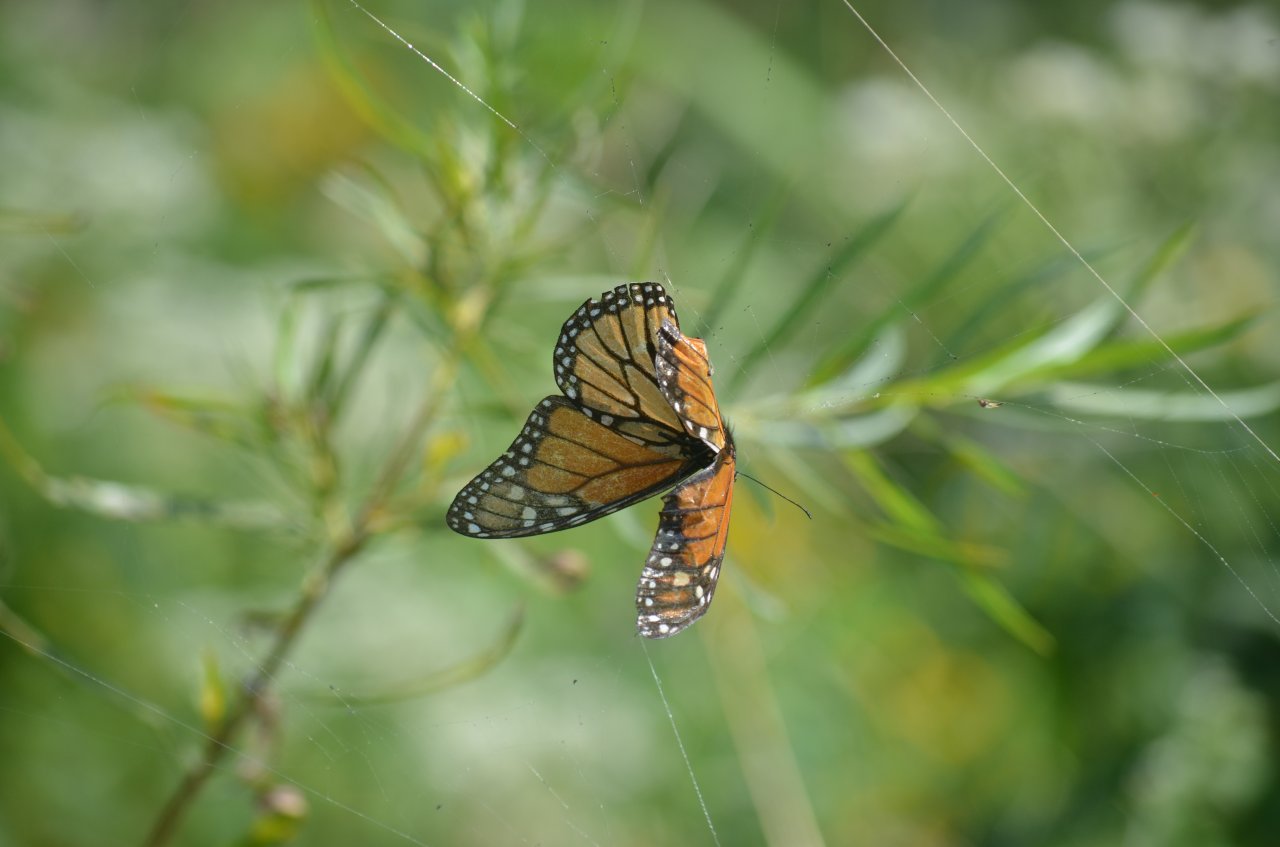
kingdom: Animalia
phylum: Arthropoda
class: Insecta
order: Lepidoptera
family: Nymphalidae
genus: Danaus
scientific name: Danaus plexippus
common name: Monarch
